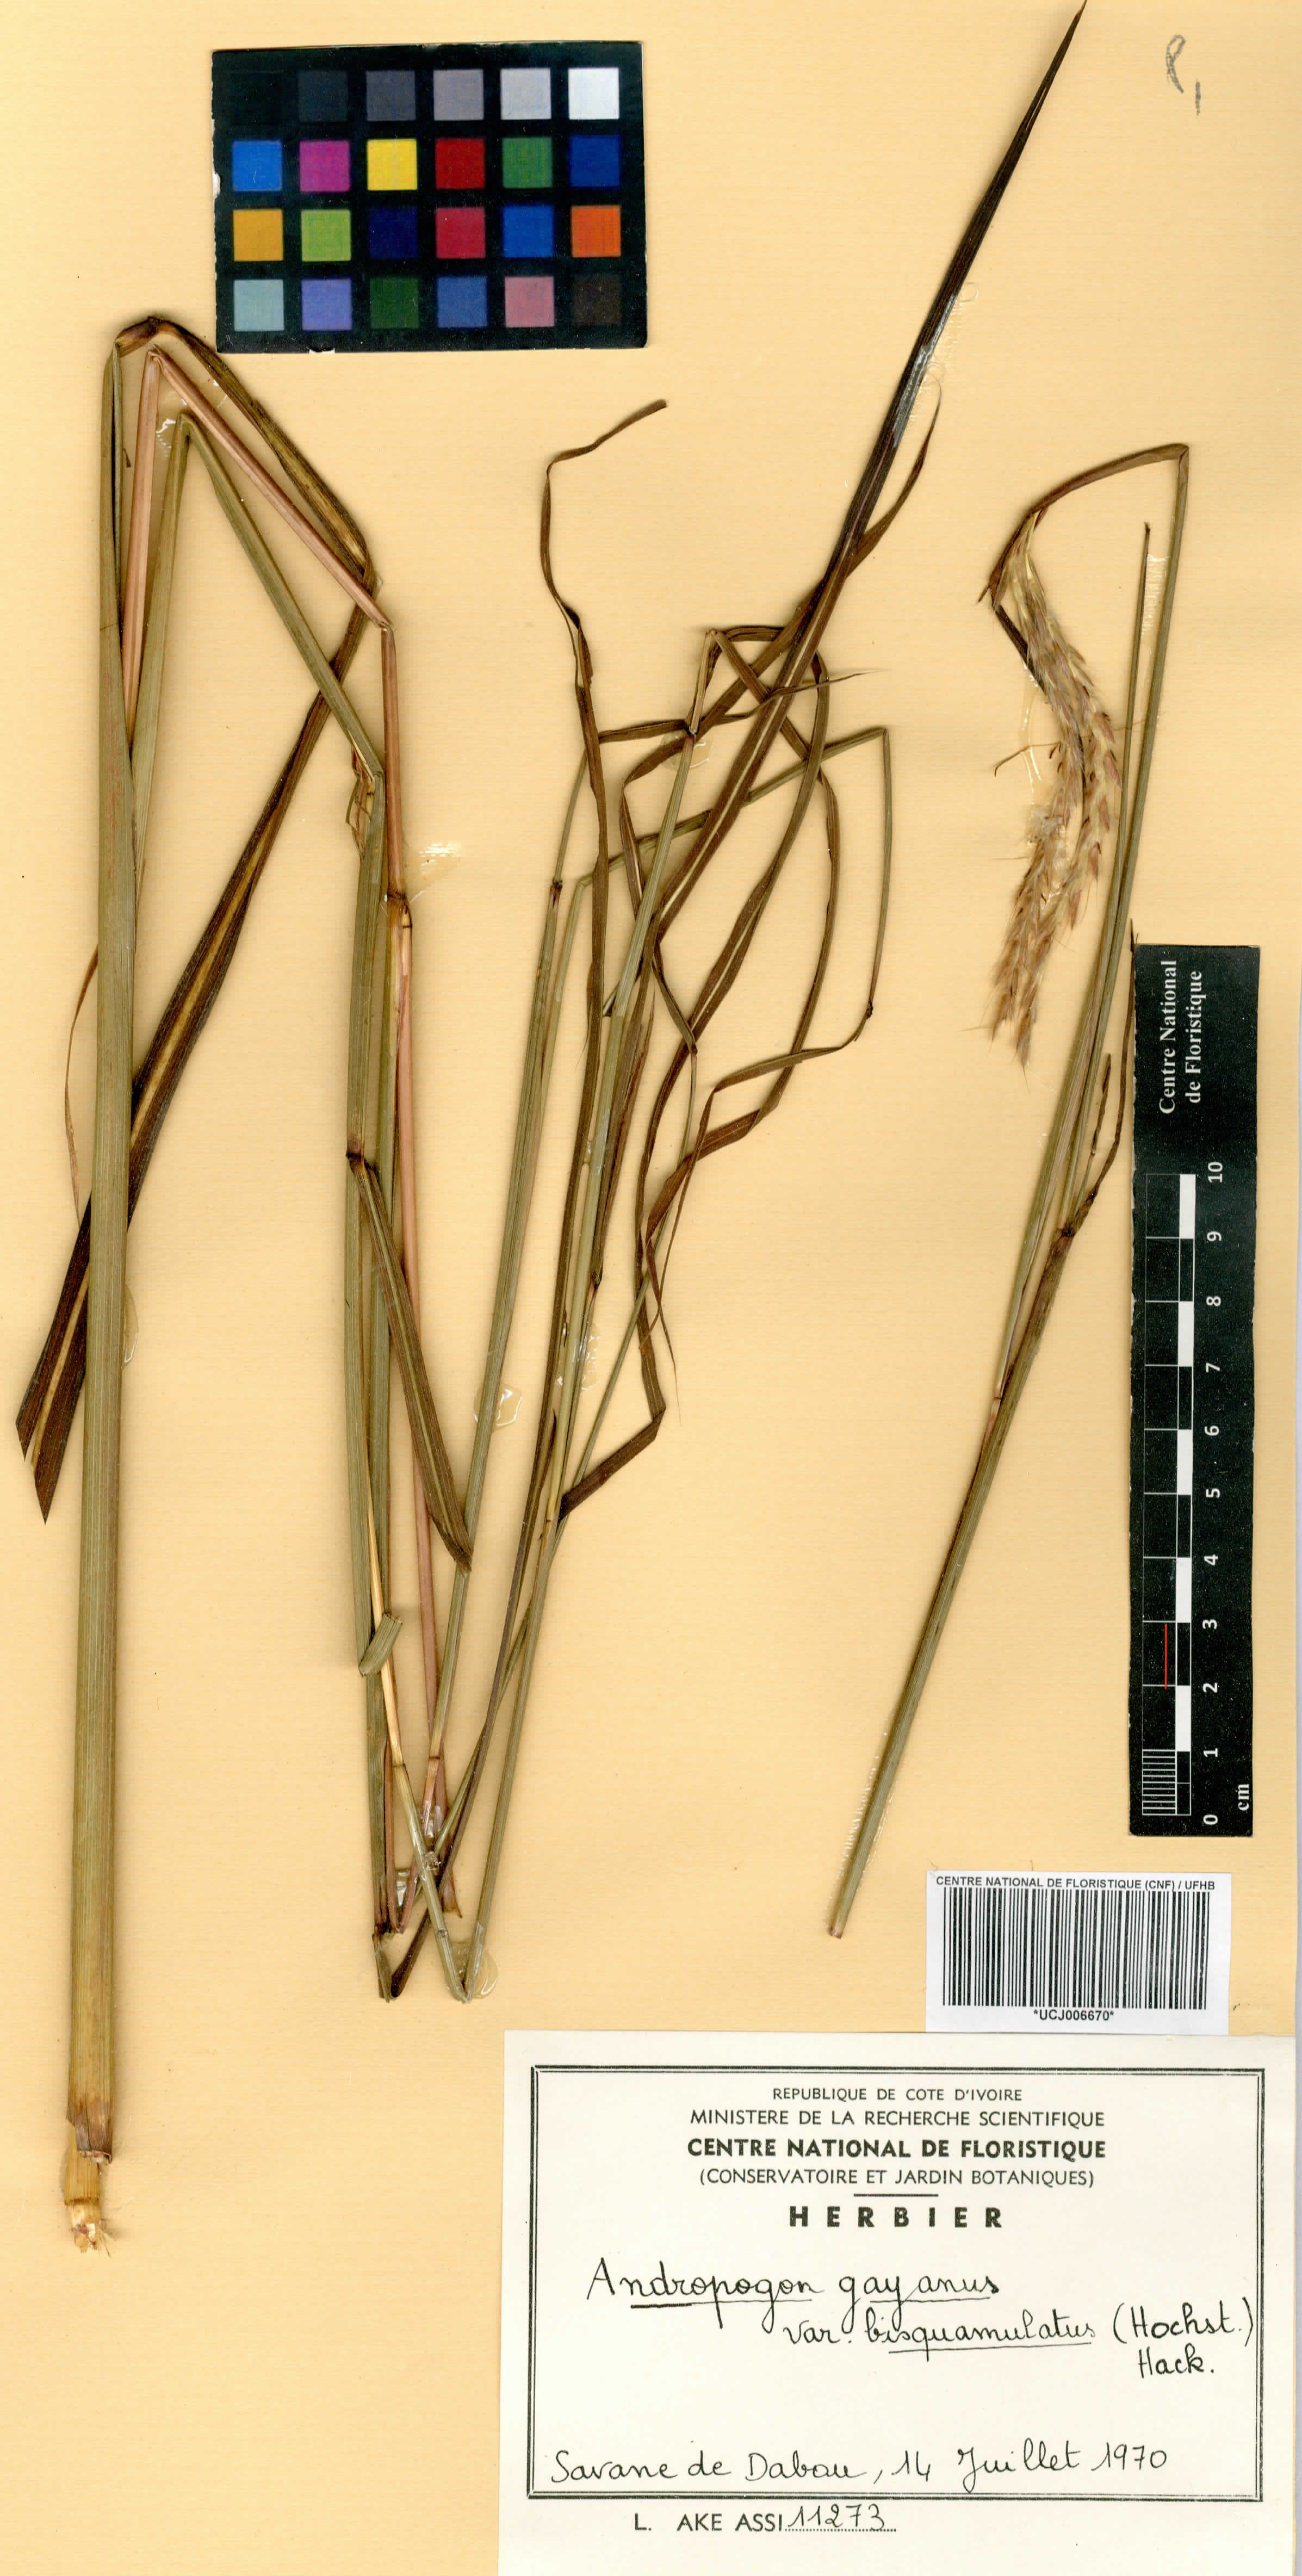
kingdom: Plantae
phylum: Tracheophyta
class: Liliopsida
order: Poales
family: Poaceae
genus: Andropogon
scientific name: Andropogon gayanus
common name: Tambuki grass
